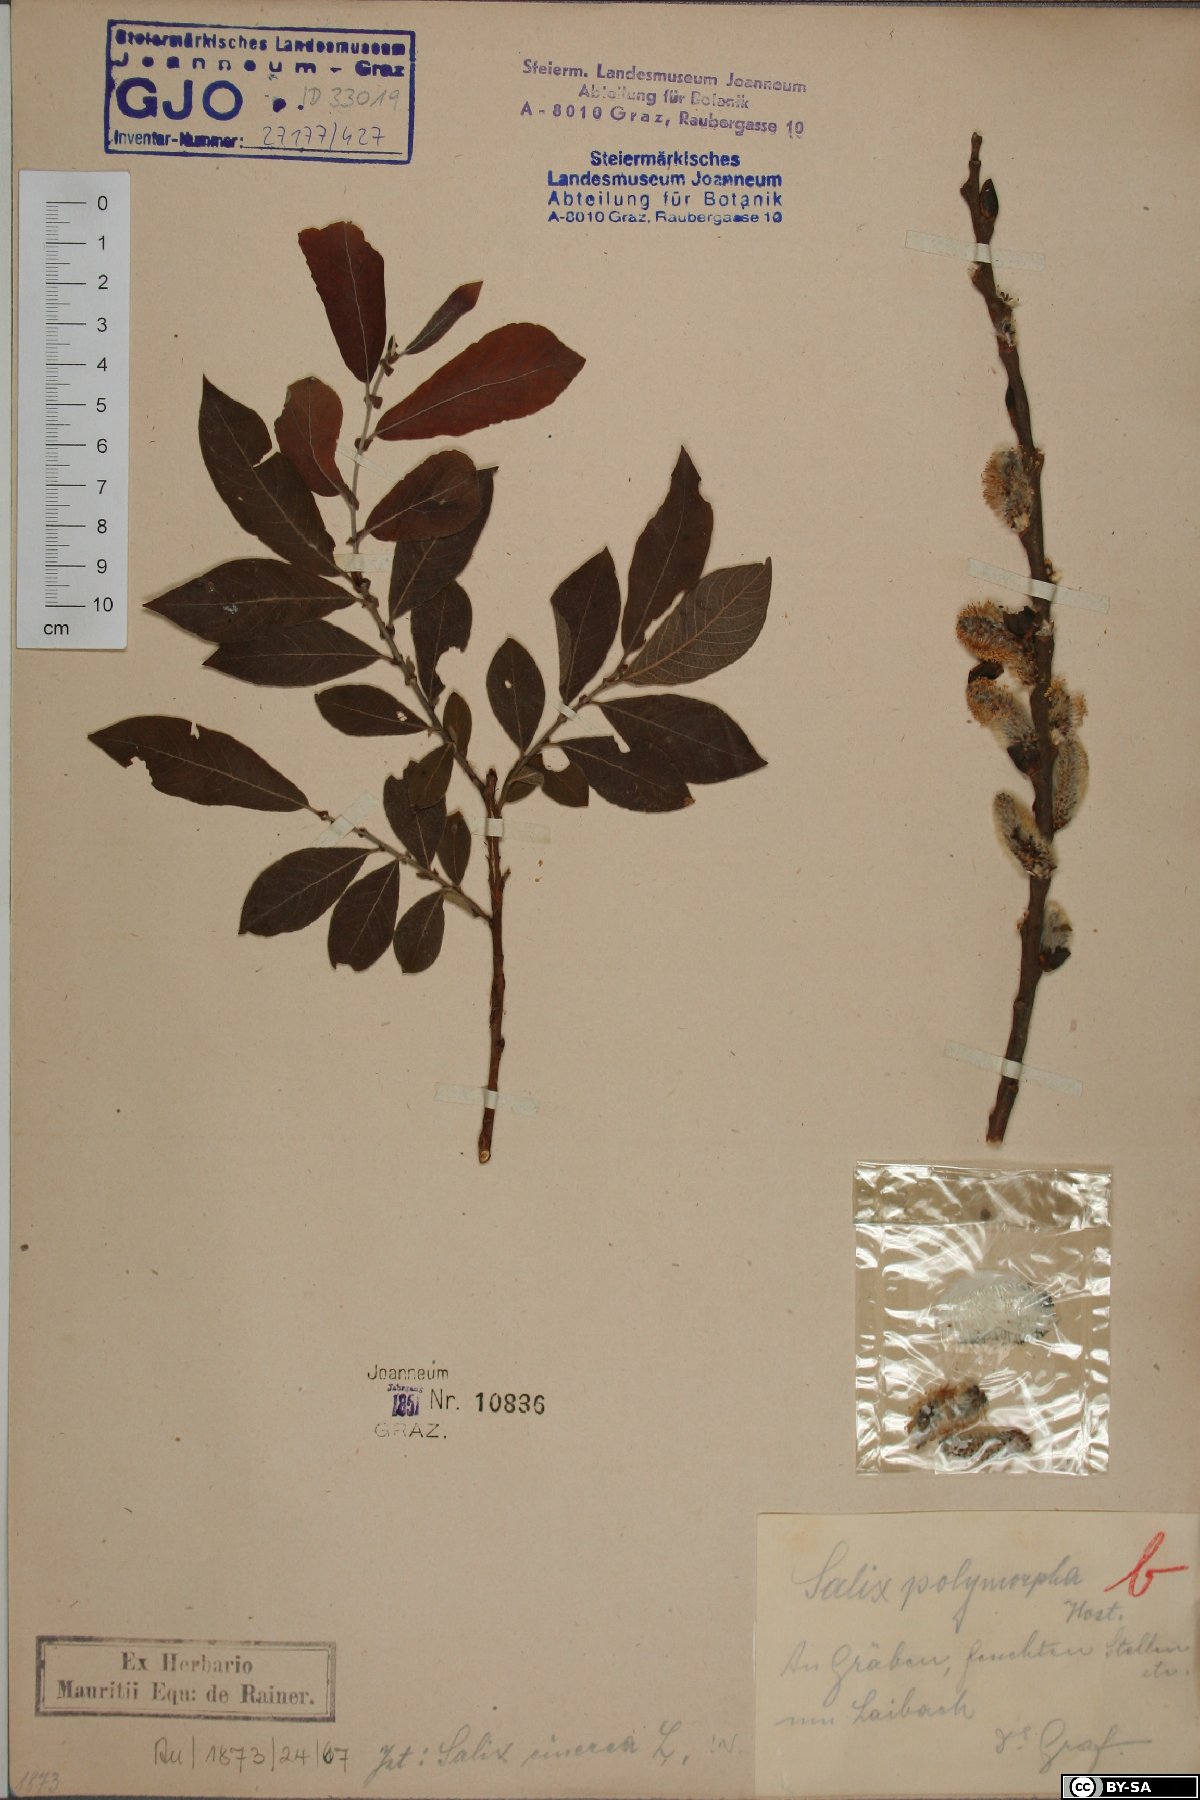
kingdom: Plantae
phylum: Tracheophyta
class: Magnoliopsida
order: Malpighiales
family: Salicaceae
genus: Salix
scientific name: Salix cinerea
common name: Common sallow
